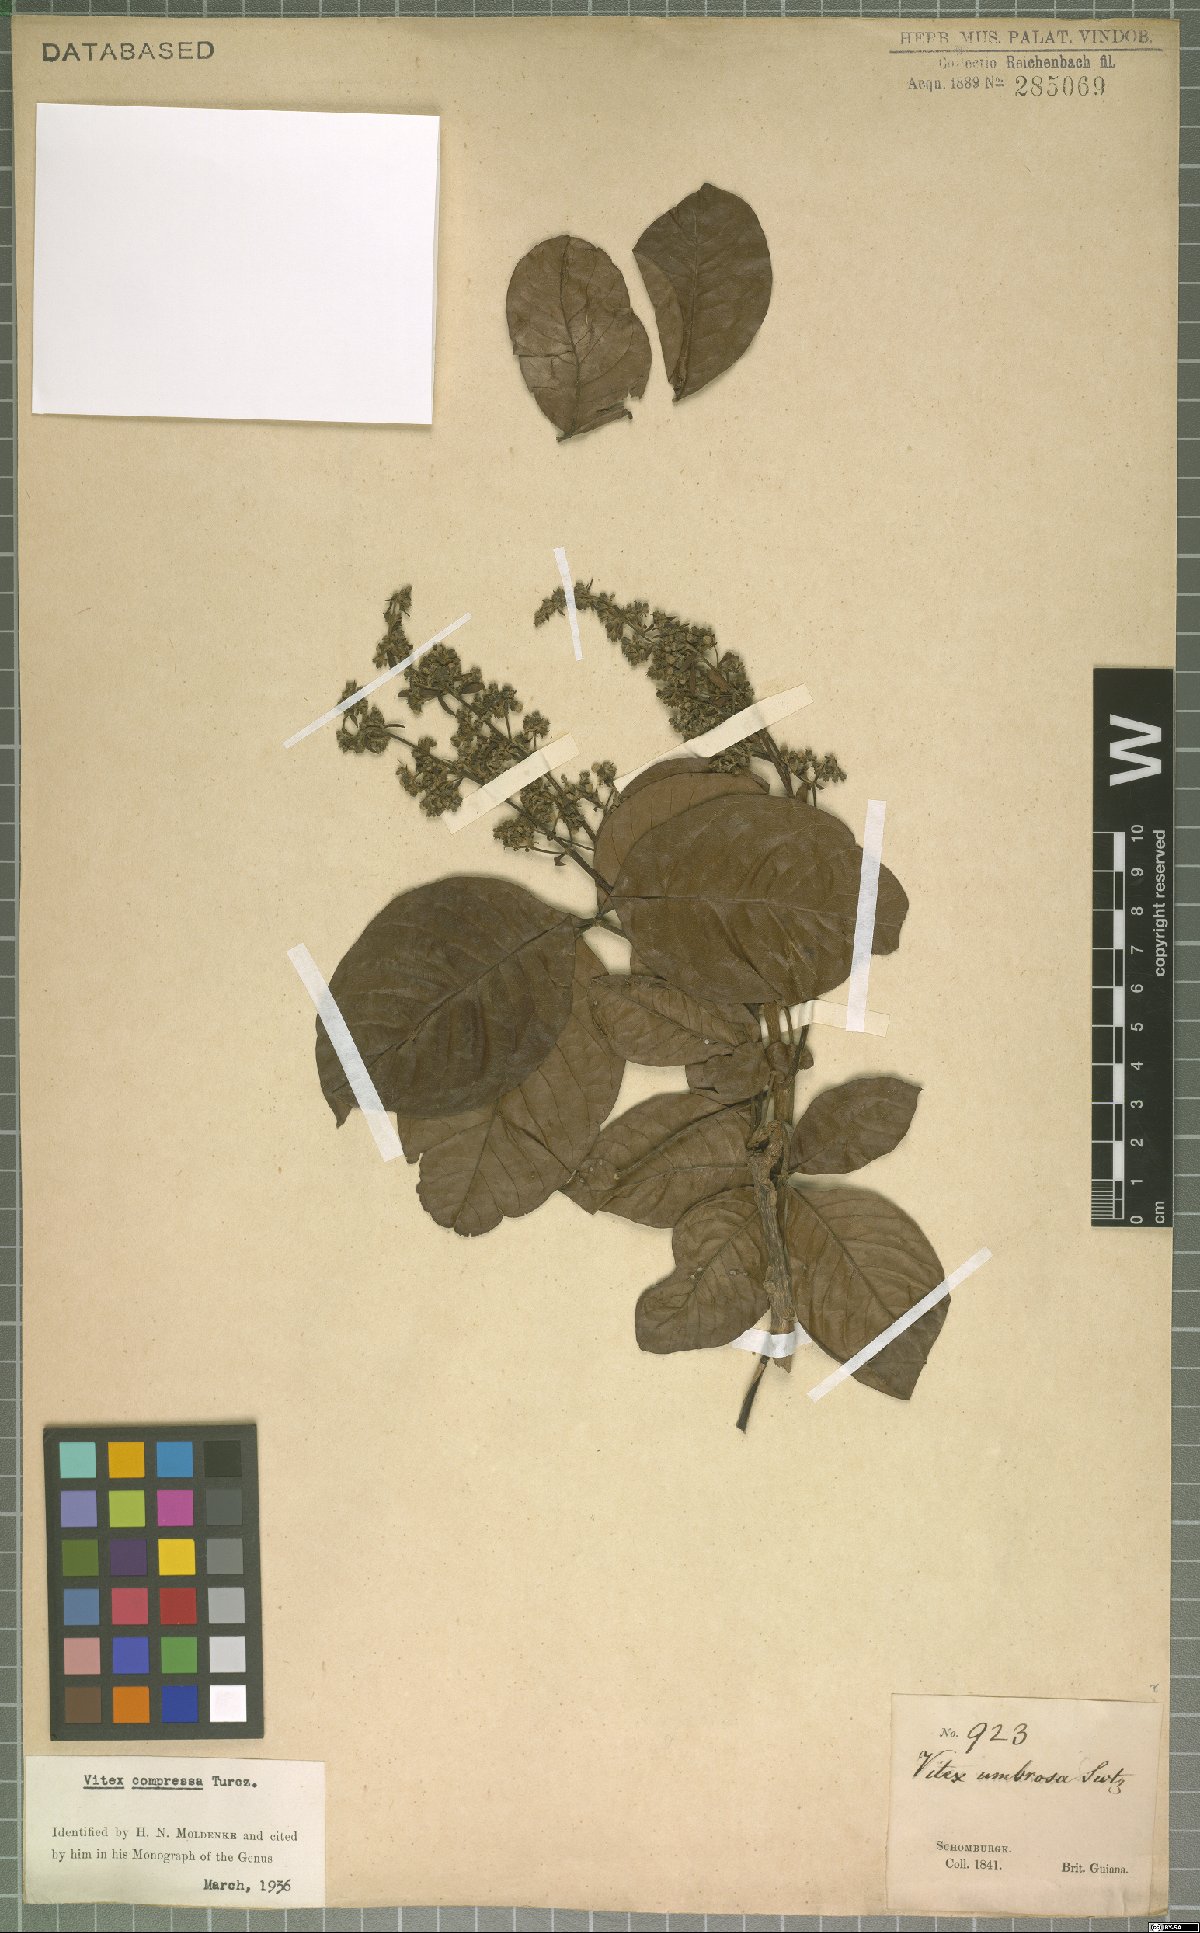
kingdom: Plantae
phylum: Tracheophyta
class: Magnoliopsida
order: Lamiales
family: Lamiaceae
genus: Vitex
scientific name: Vitex compressa
